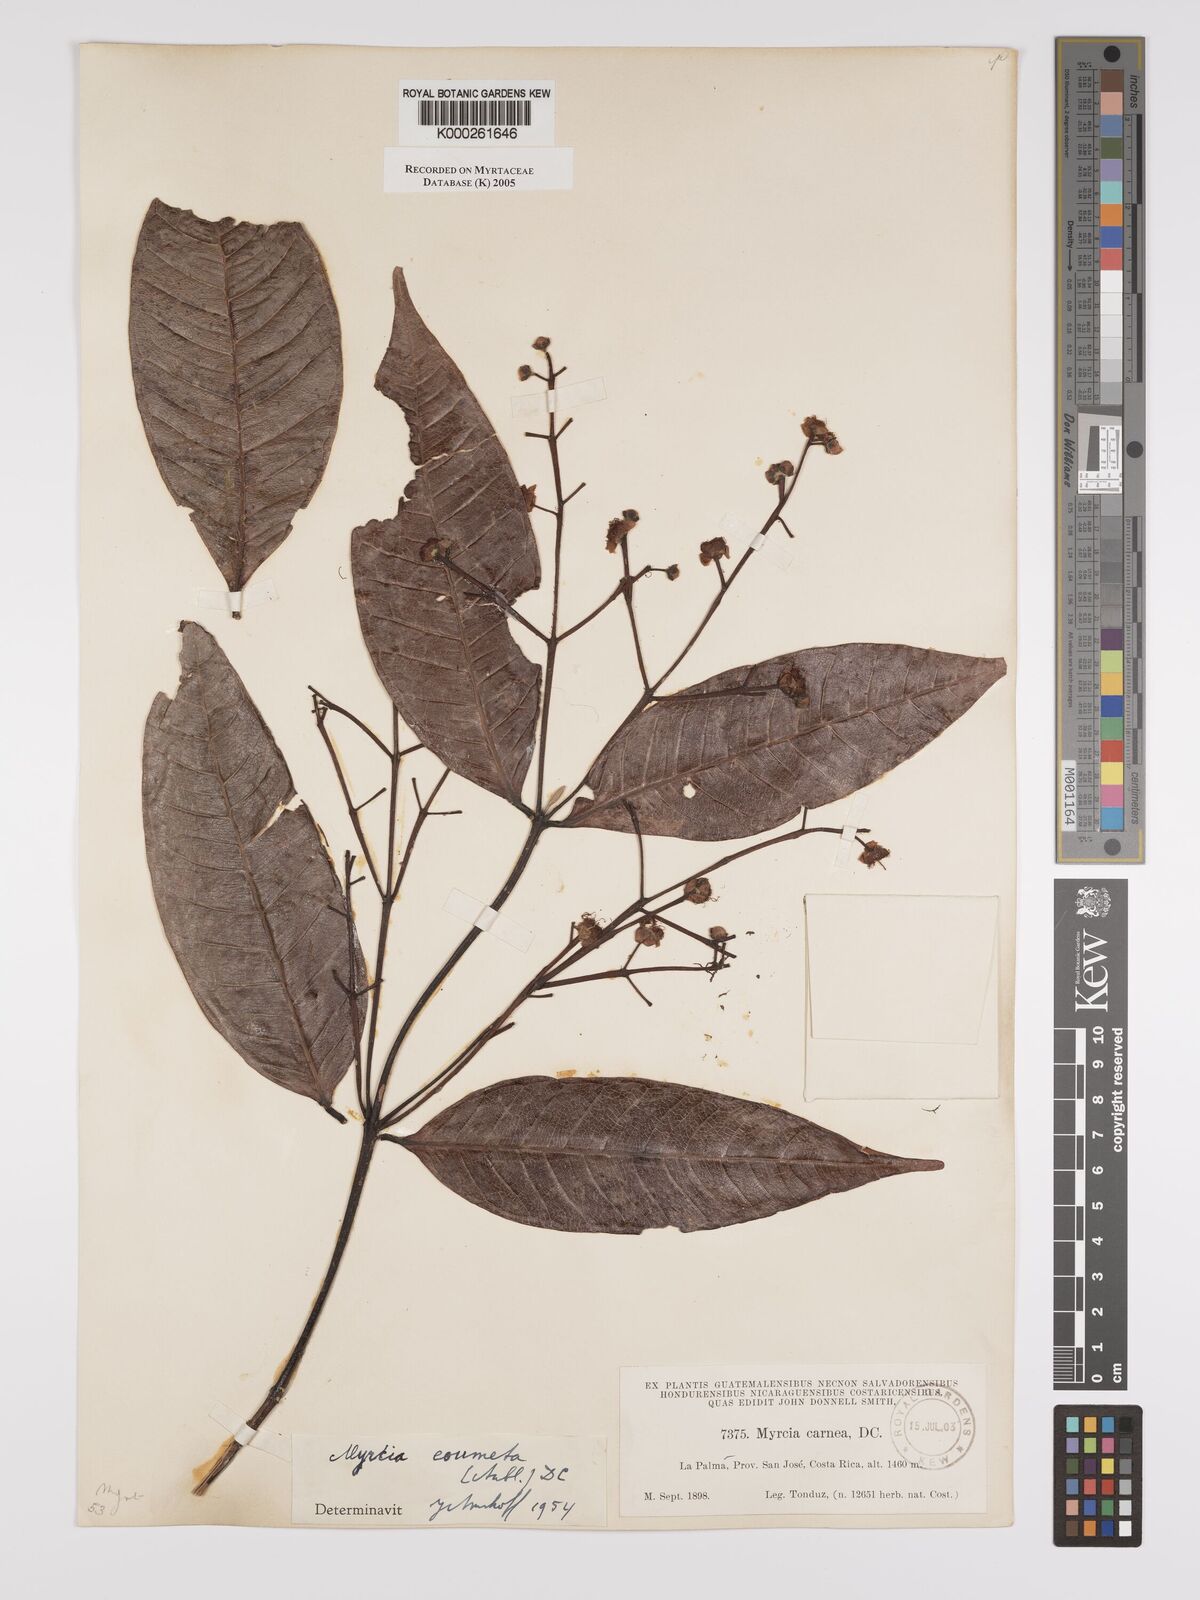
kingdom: Plantae
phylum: Tracheophyta
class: Magnoliopsida
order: Myrtales
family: Myrtaceae
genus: Myrcia
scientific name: Myrcia
